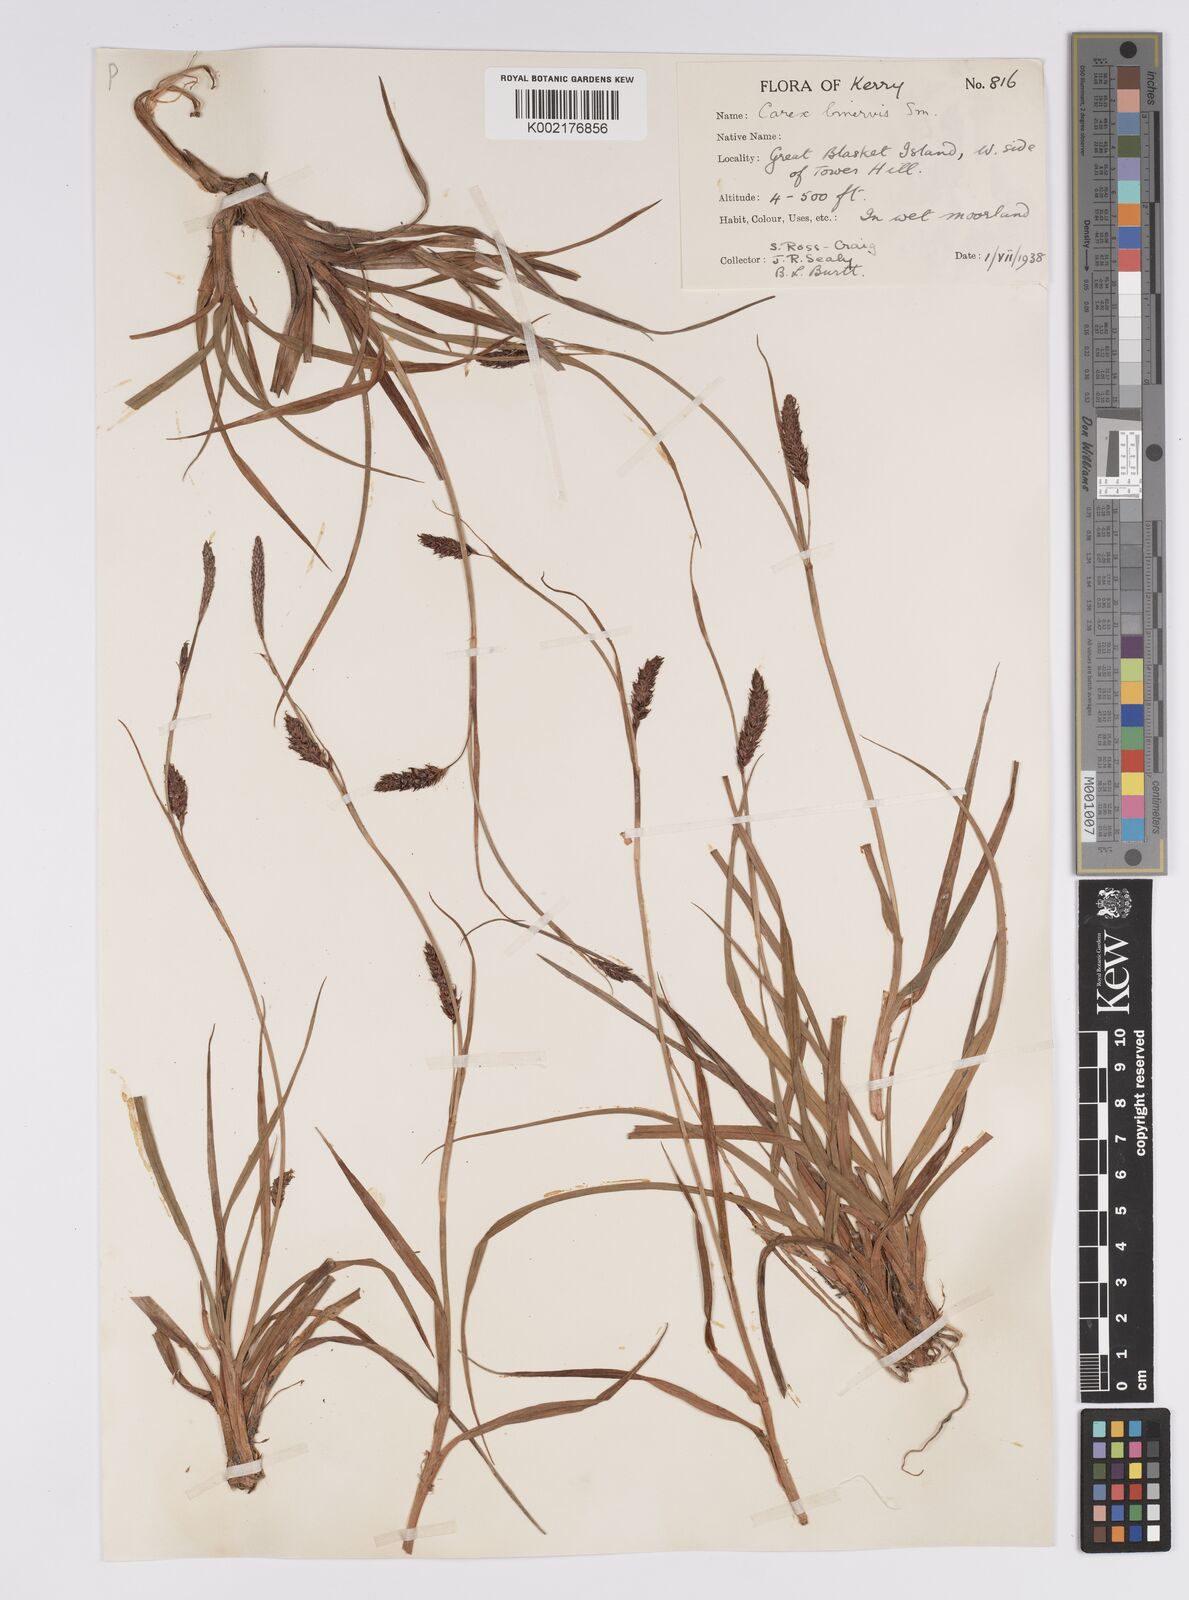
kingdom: Plantae
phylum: Tracheophyta
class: Liliopsida
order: Poales
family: Cyperaceae
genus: Carex
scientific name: Carex binervis
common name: Green-ribbed sedge
